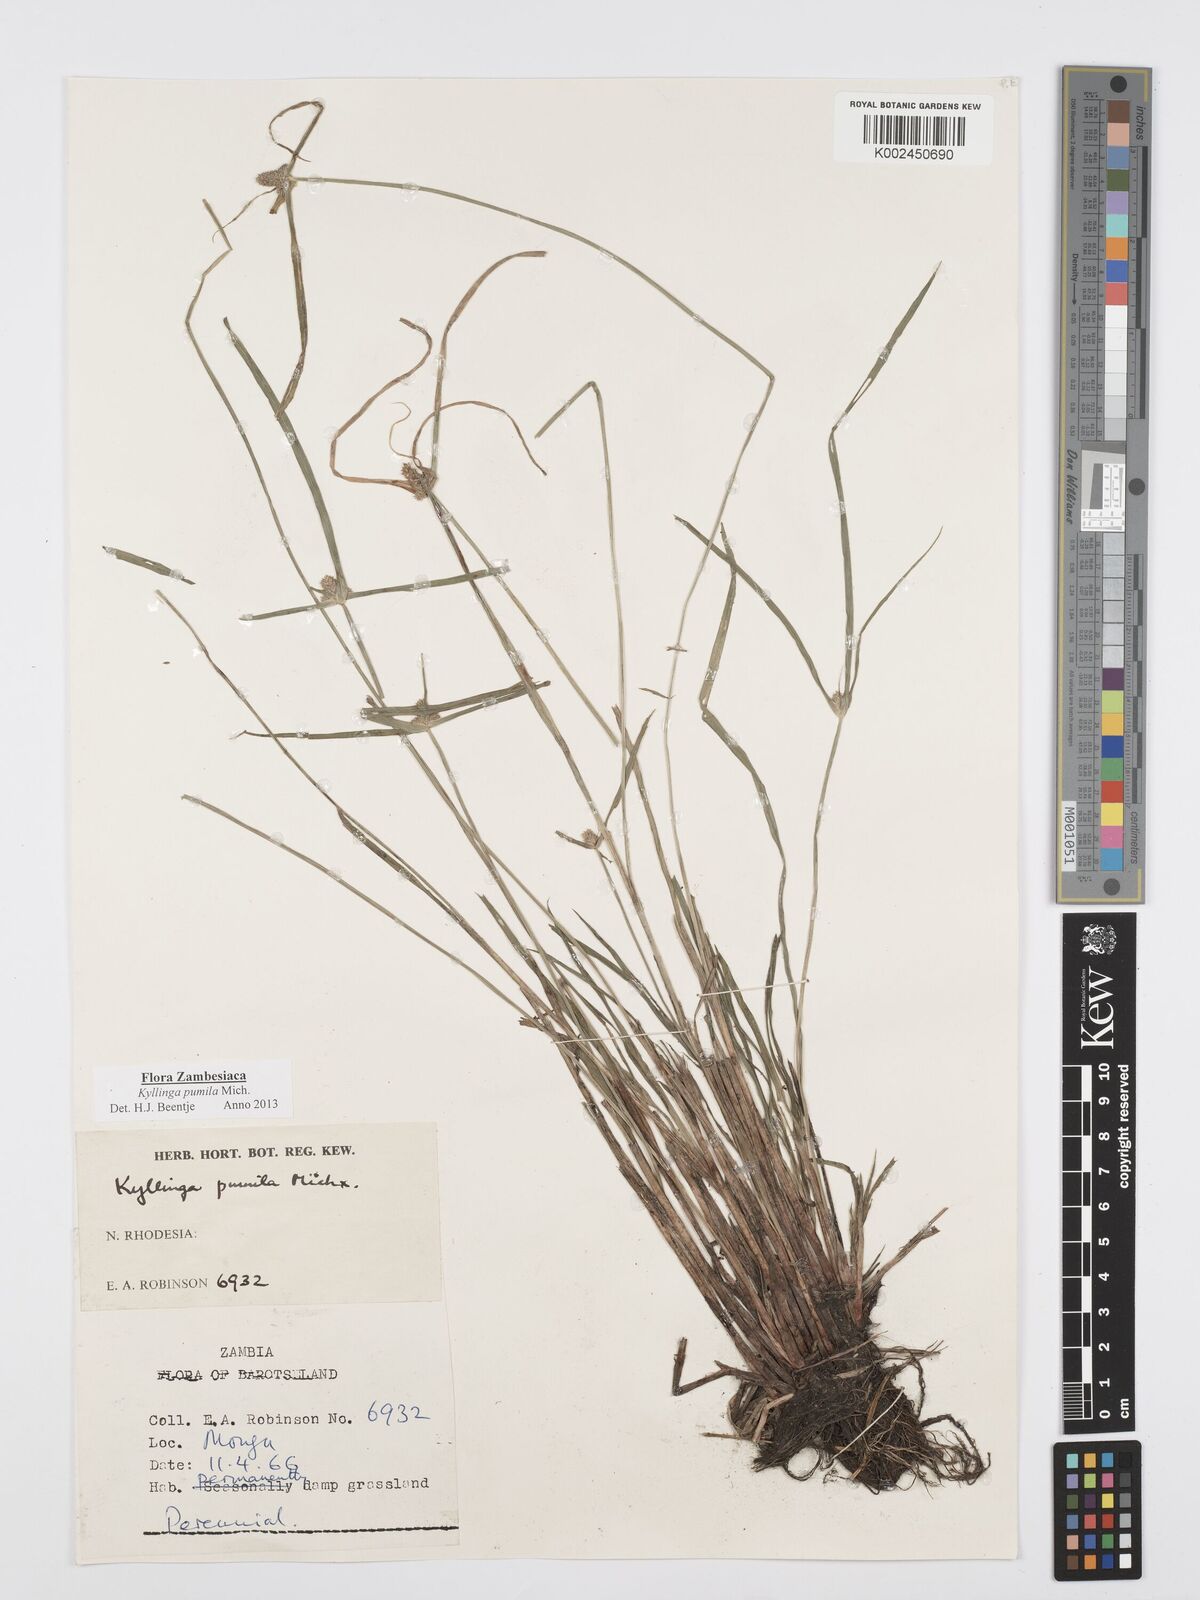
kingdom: Plantae
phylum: Tracheophyta
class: Liliopsida
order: Poales
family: Cyperaceae
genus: Cyperus
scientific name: Cyperus pumilus
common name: Low flatsedge
